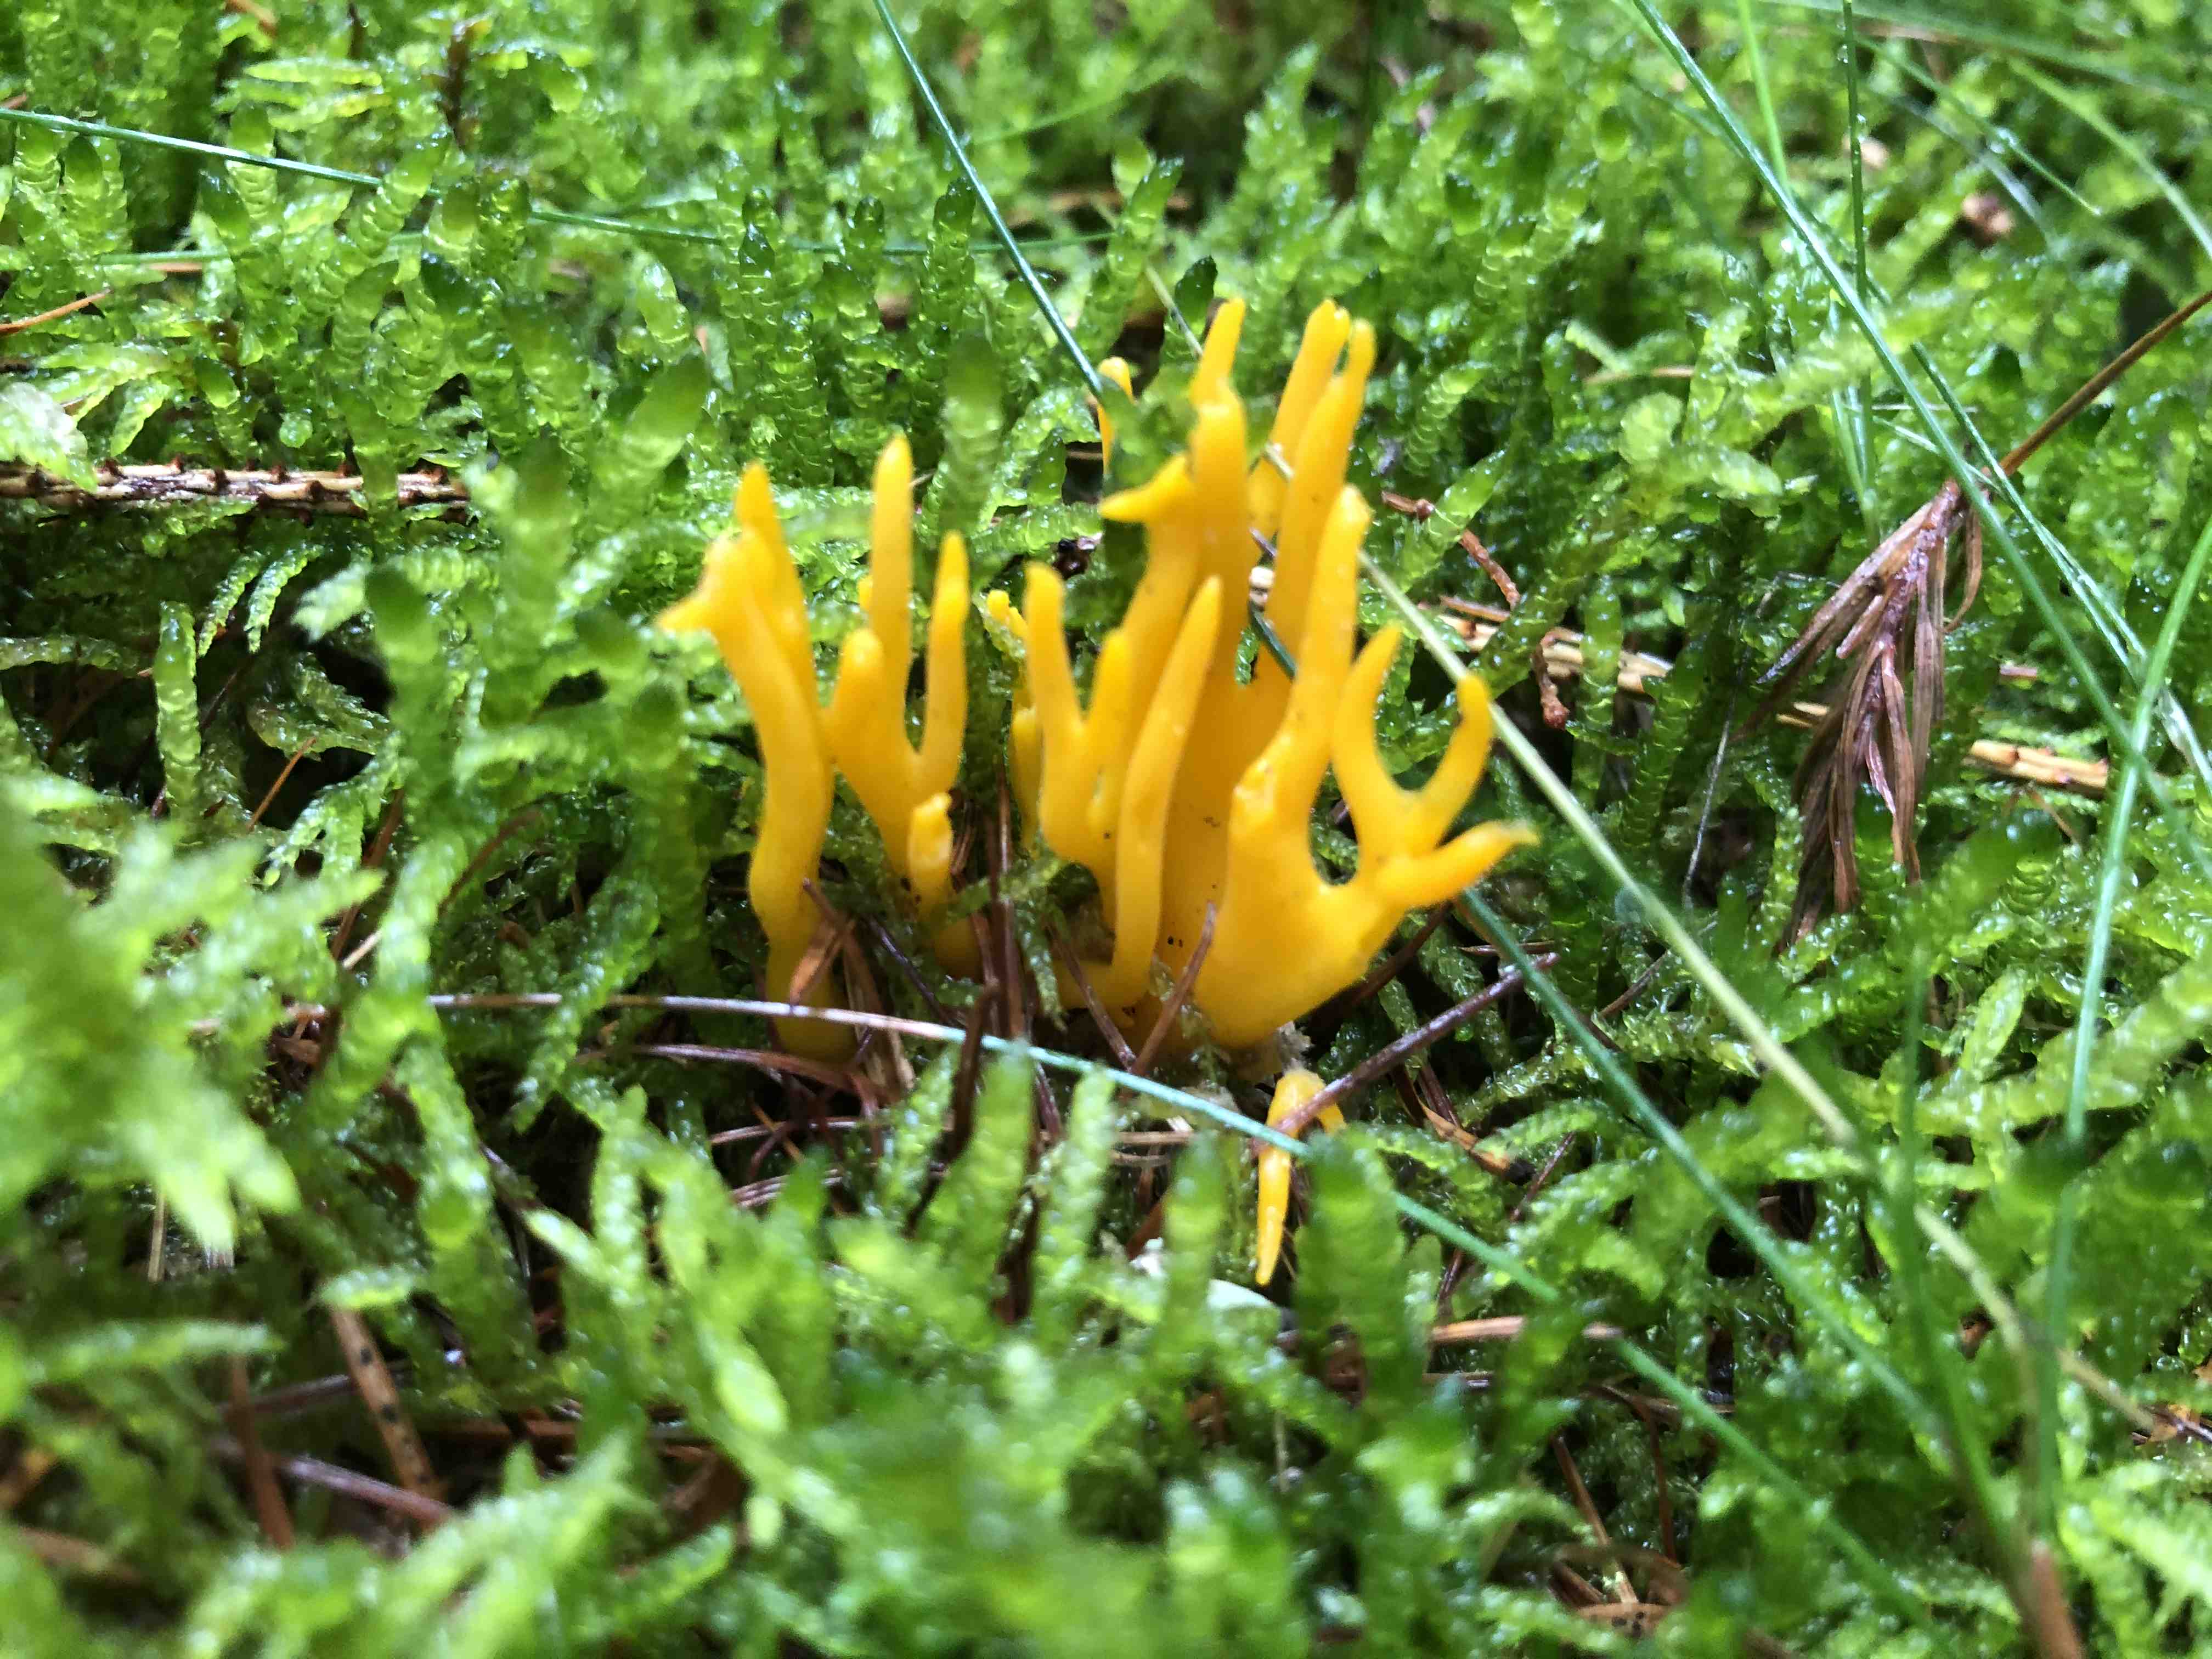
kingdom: Fungi
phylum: Basidiomycota
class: Dacrymycetes
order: Dacrymycetales
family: Dacrymycetaceae
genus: Calocera
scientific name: Calocera viscosa
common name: almindelig guldgaffel
